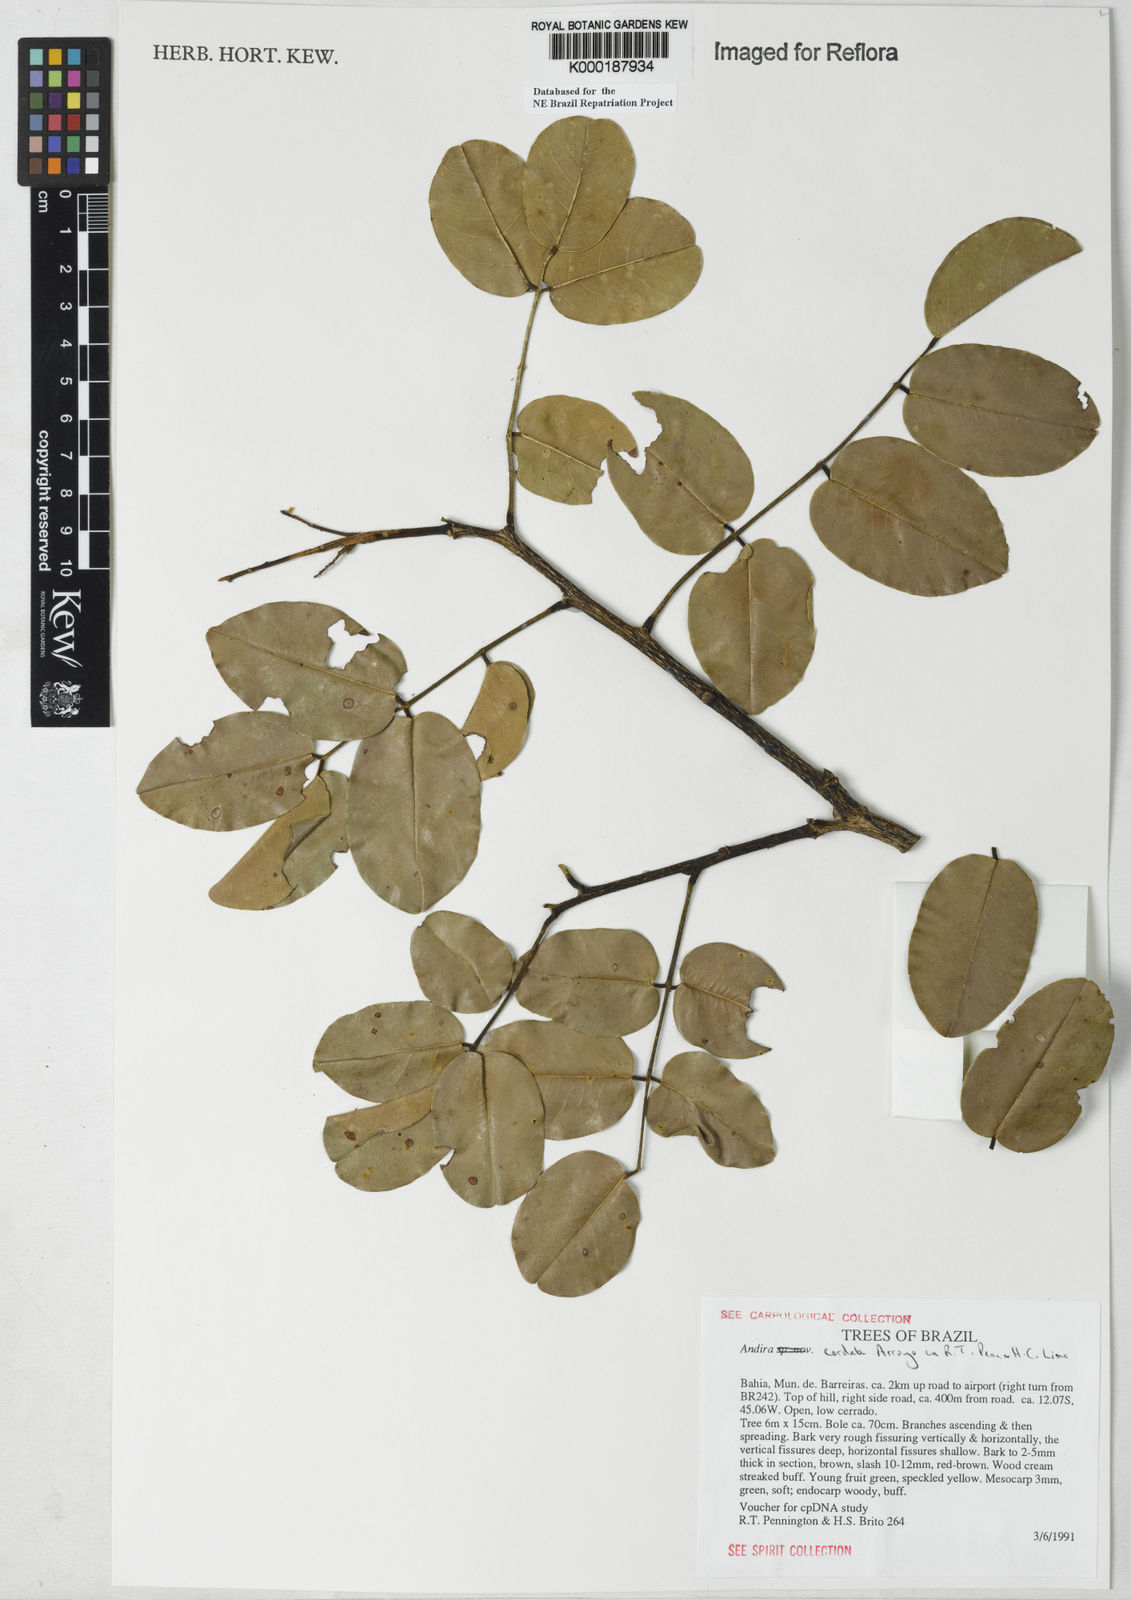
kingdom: Plantae
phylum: Tracheophyta
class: Magnoliopsida
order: Fabales
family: Fabaceae
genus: Andira
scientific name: Andira cordata
